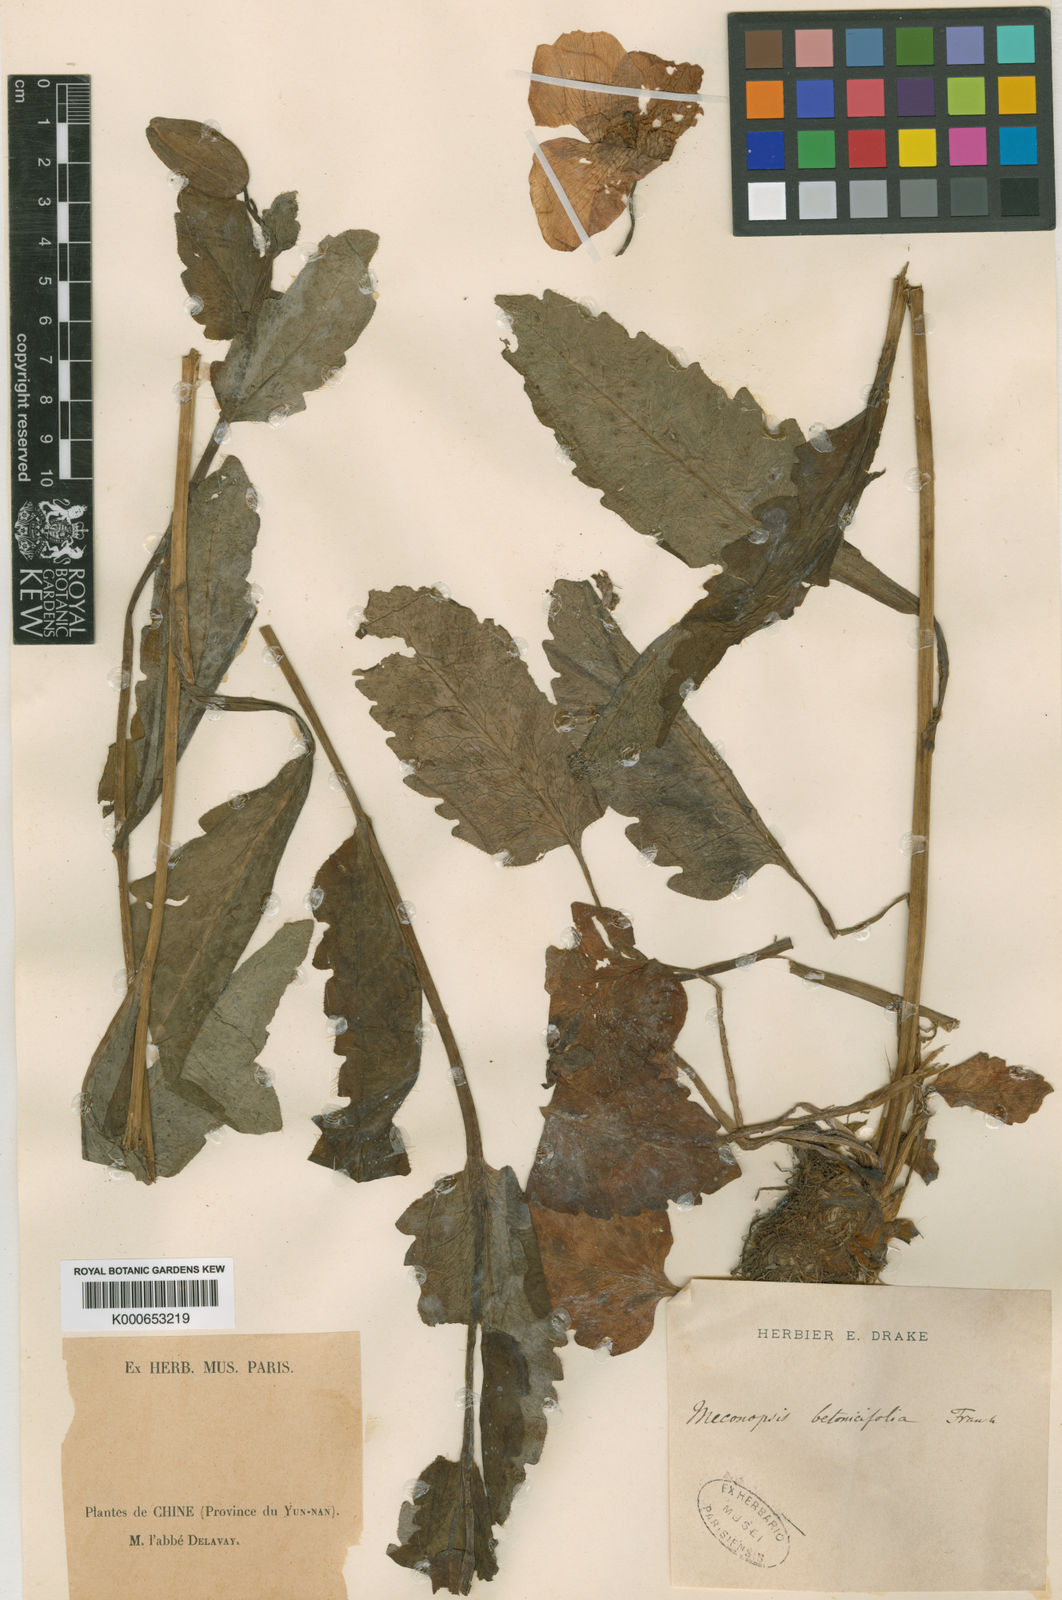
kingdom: Plantae
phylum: Tracheophyta
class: Magnoliopsida
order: Ranunculales
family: Papaveraceae
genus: Cathcartia
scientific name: Cathcartia betonicifolia
